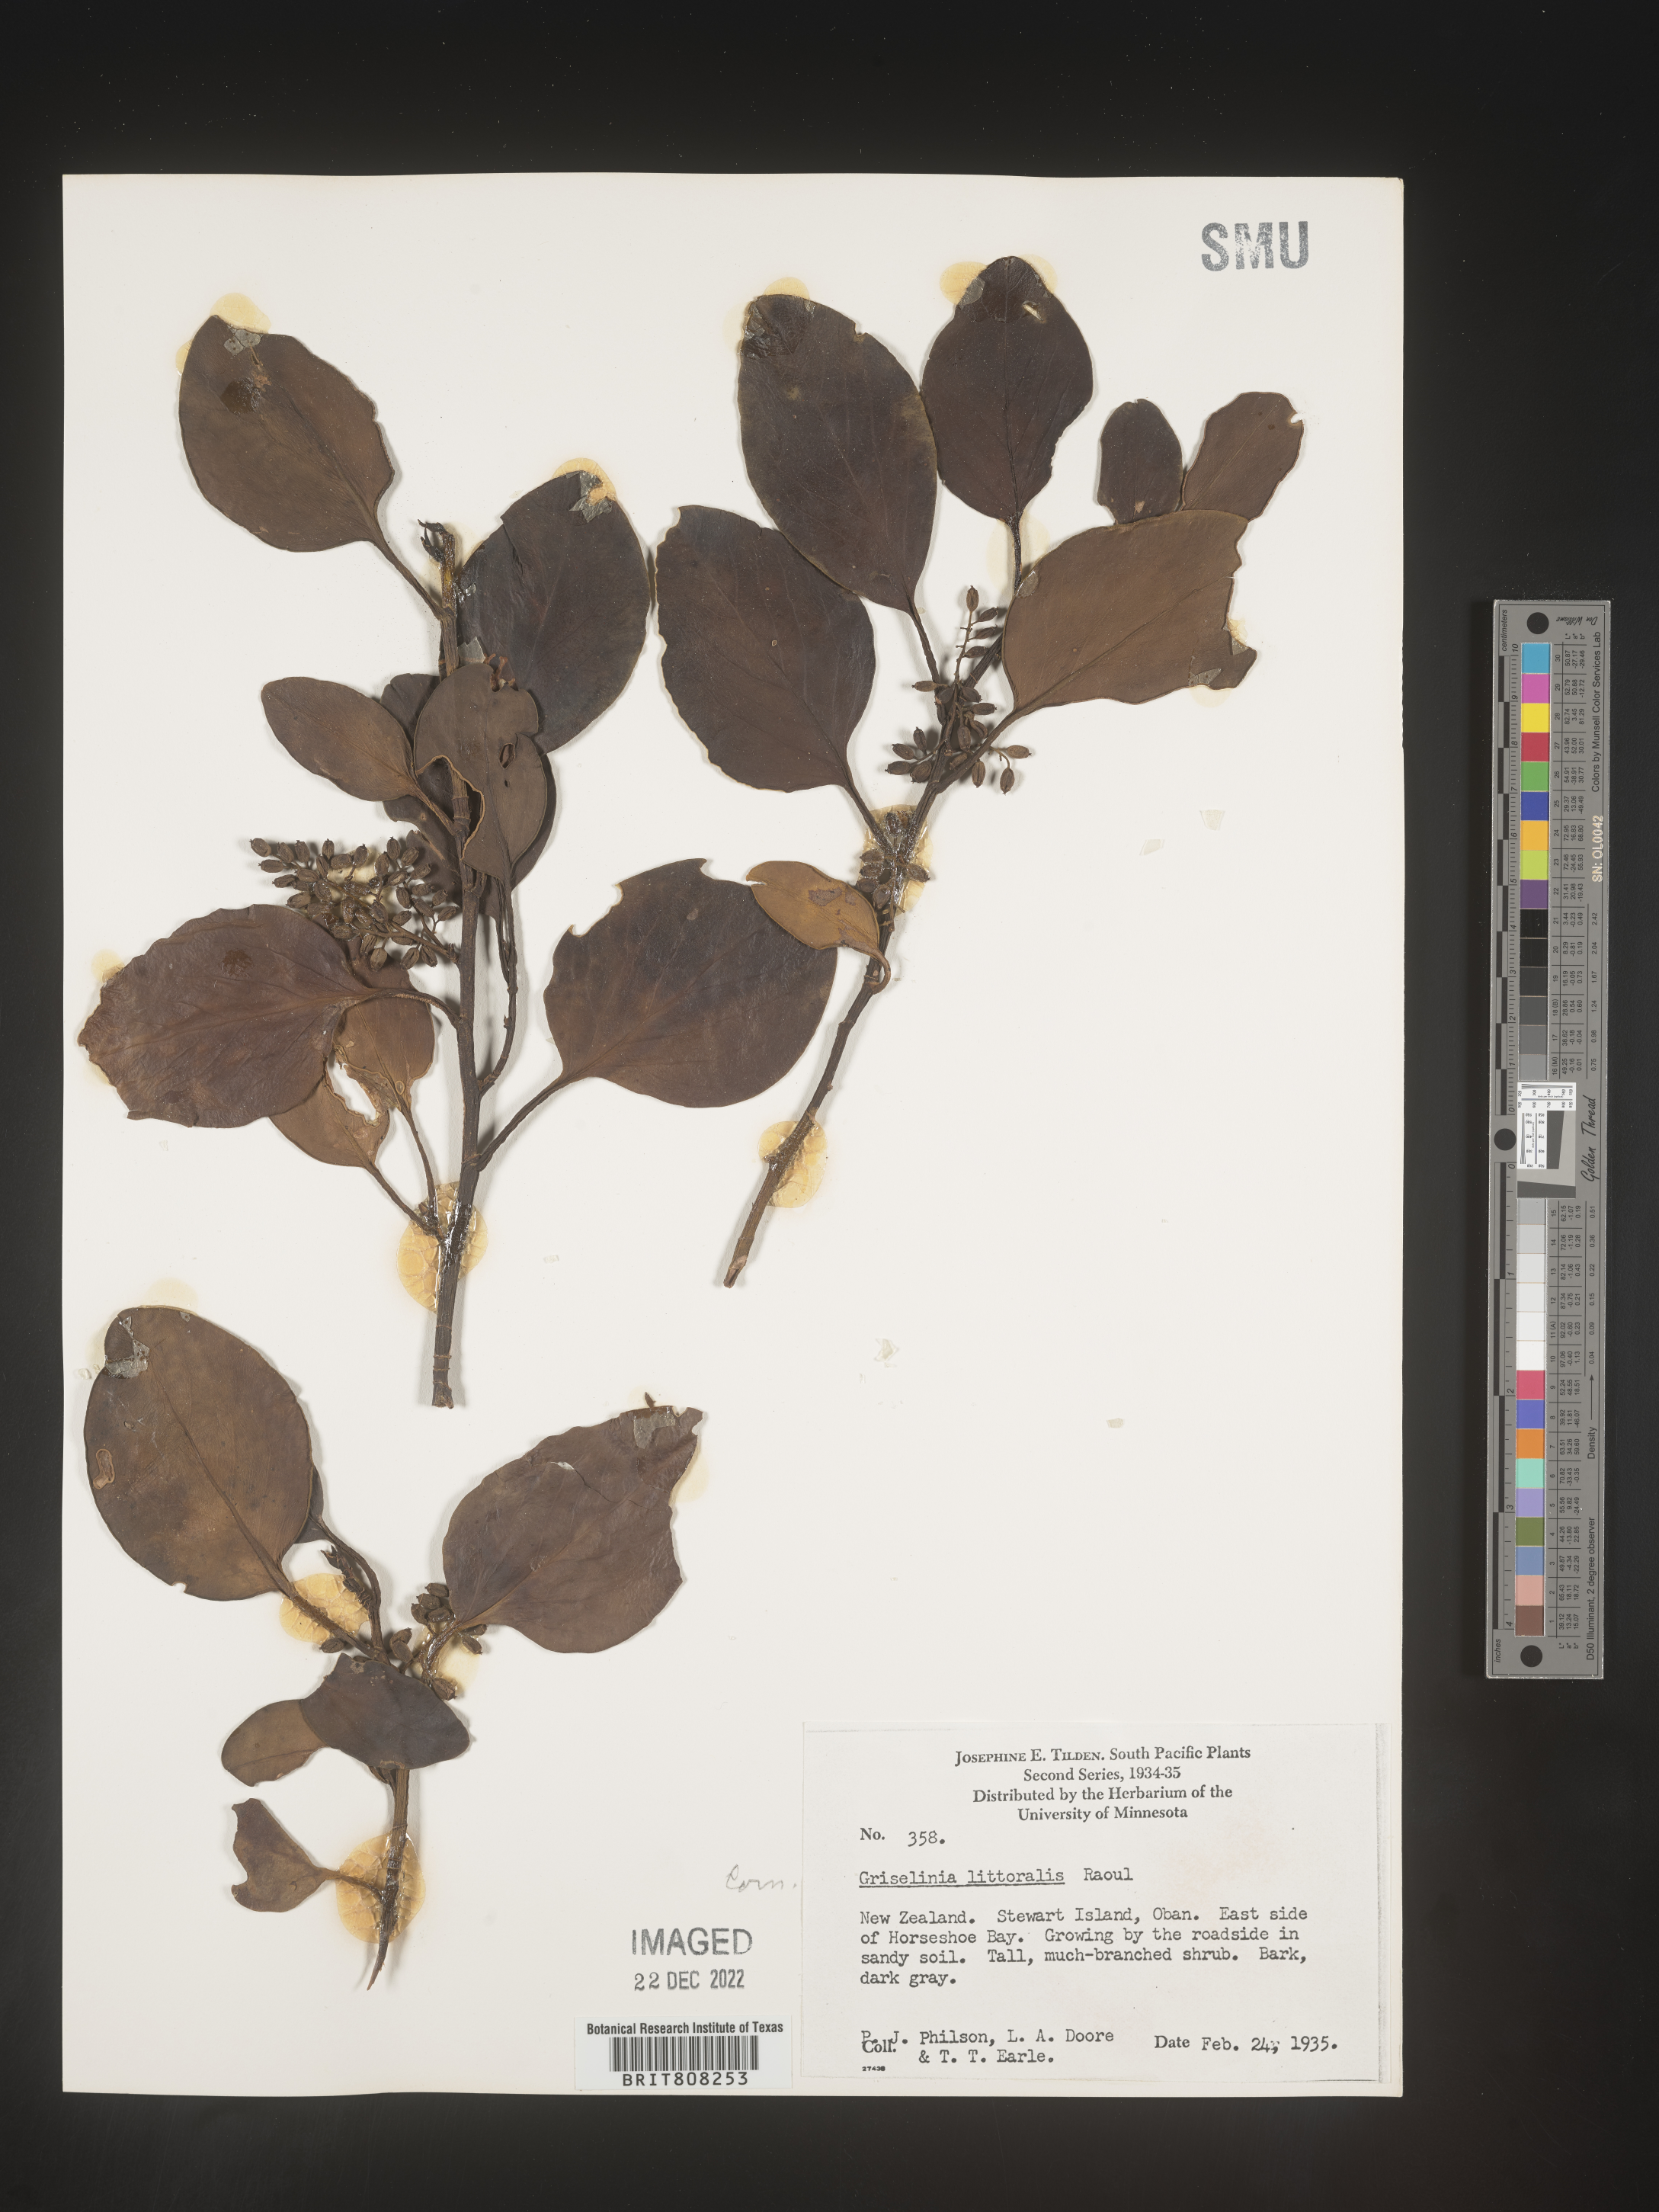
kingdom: Plantae
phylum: Tracheophyta
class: Magnoliopsida
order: Apiales
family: Griseliniaceae
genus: Griselinia
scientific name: Griselinia
